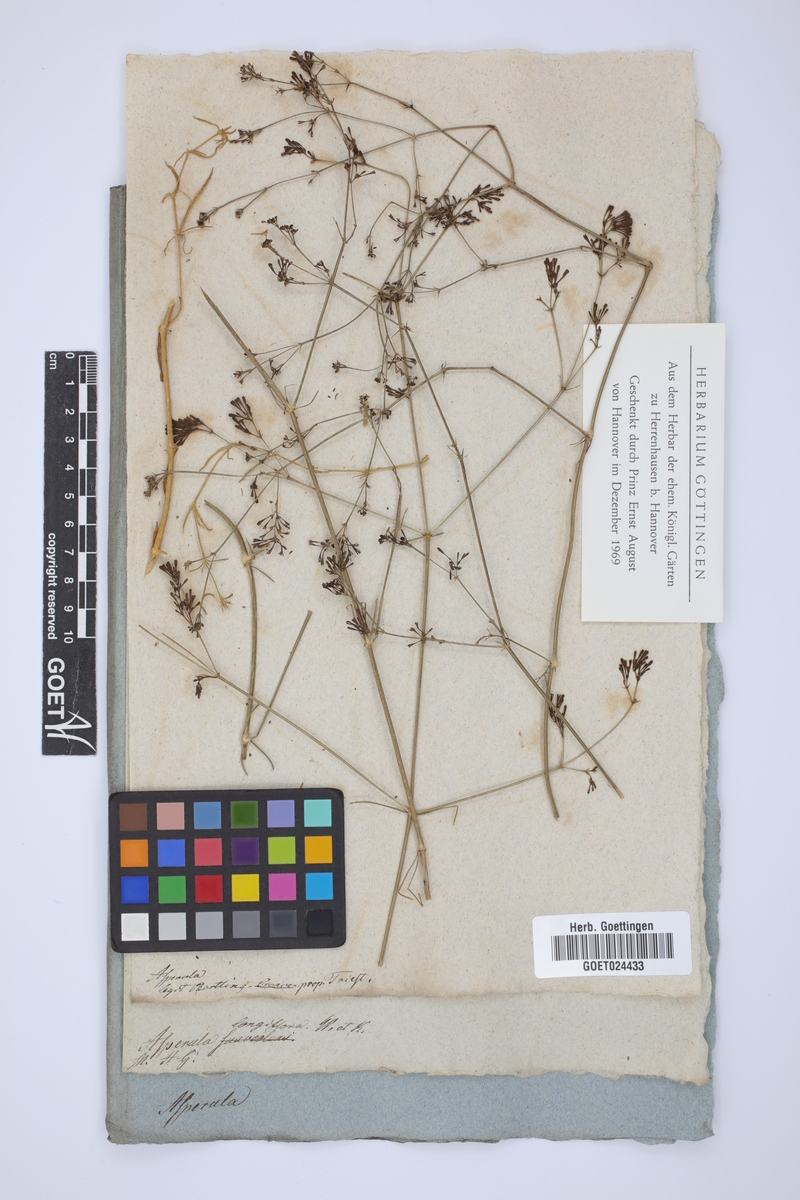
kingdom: Plantae
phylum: Tracheophyta
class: Magnoliopsida
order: Gentianales
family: Rubiaceae
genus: Cynanchica
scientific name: Cynanchica aristata
